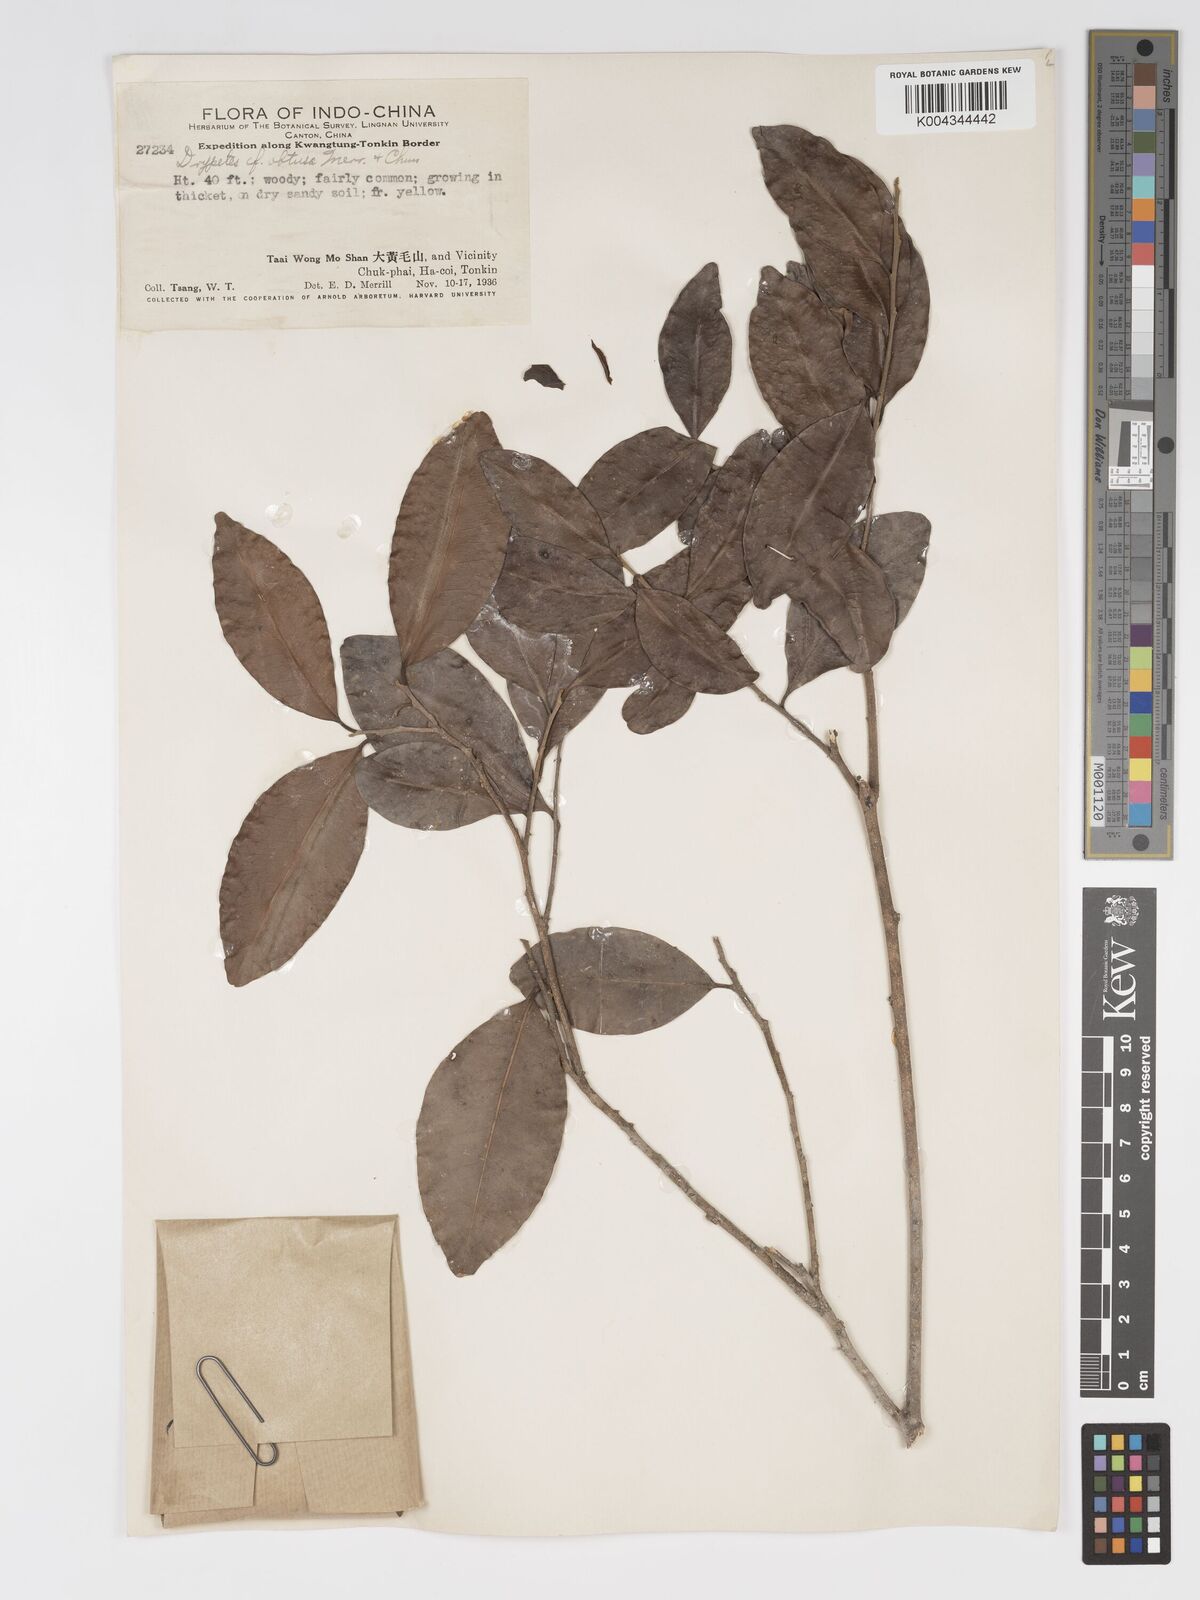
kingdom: Plantae
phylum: Tracheophyta
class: Magnoliopsida
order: Malpighiales
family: Putranjivaceae
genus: Drypetes
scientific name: Drypetes obtusa
